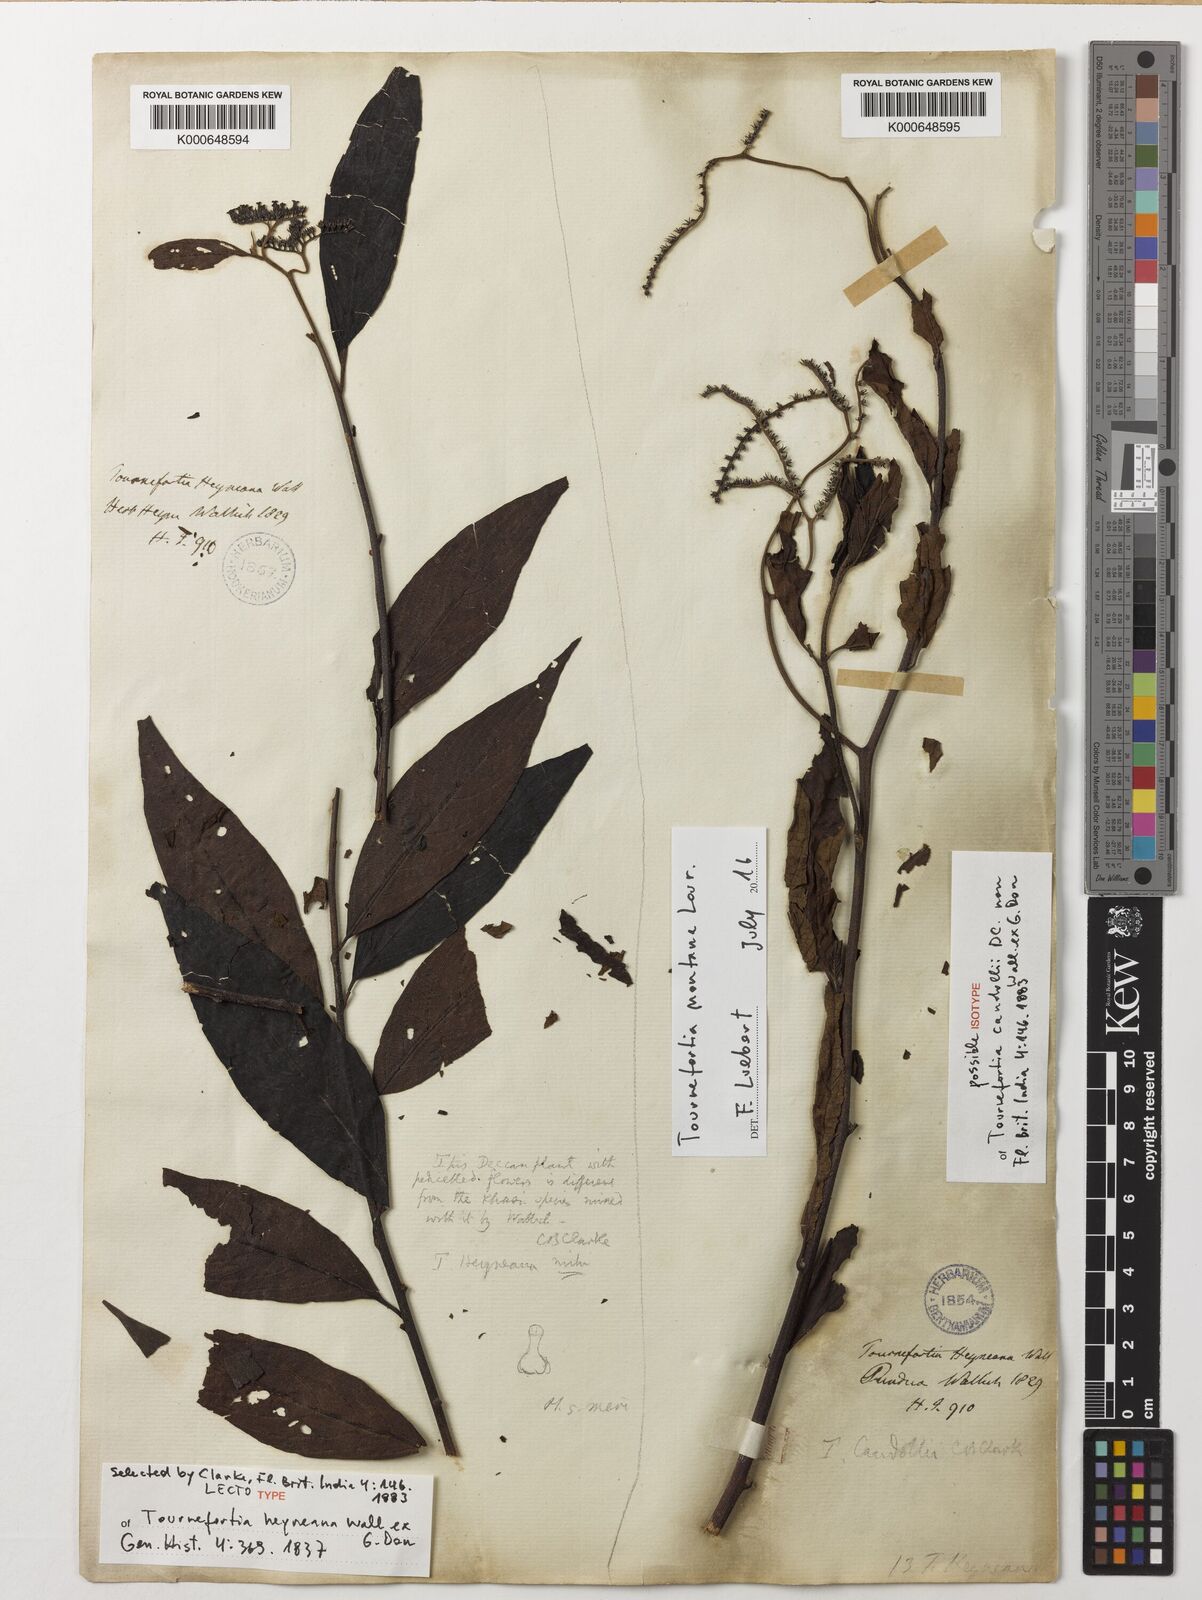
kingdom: Plantae
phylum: Tracheophyta
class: Magnoliopsida
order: Boraginales
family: Heliotropiaceae
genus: Tournefortia
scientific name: Tournefortia heyneana
